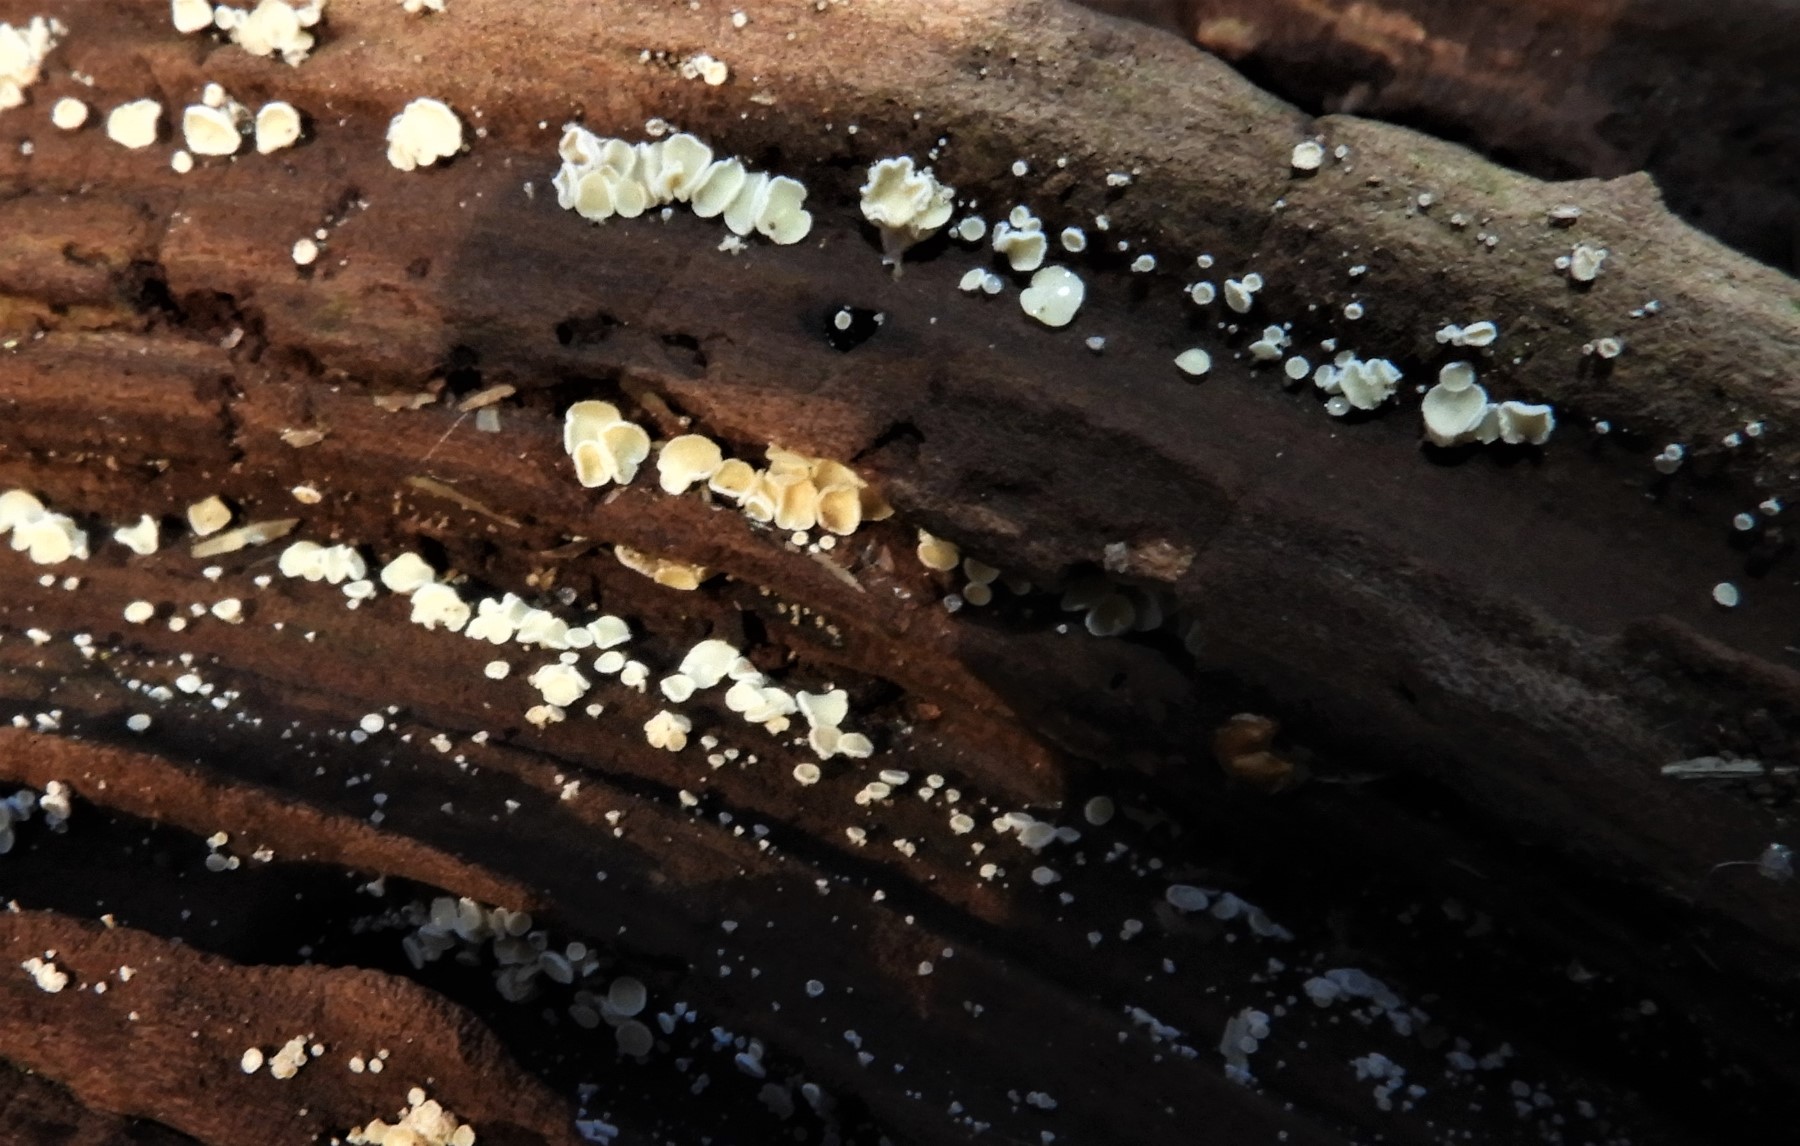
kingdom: Fungi
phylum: Ascomycota
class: Leotiomycetes
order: Helotiales
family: Lachnaceae
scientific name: Lachnaceae
